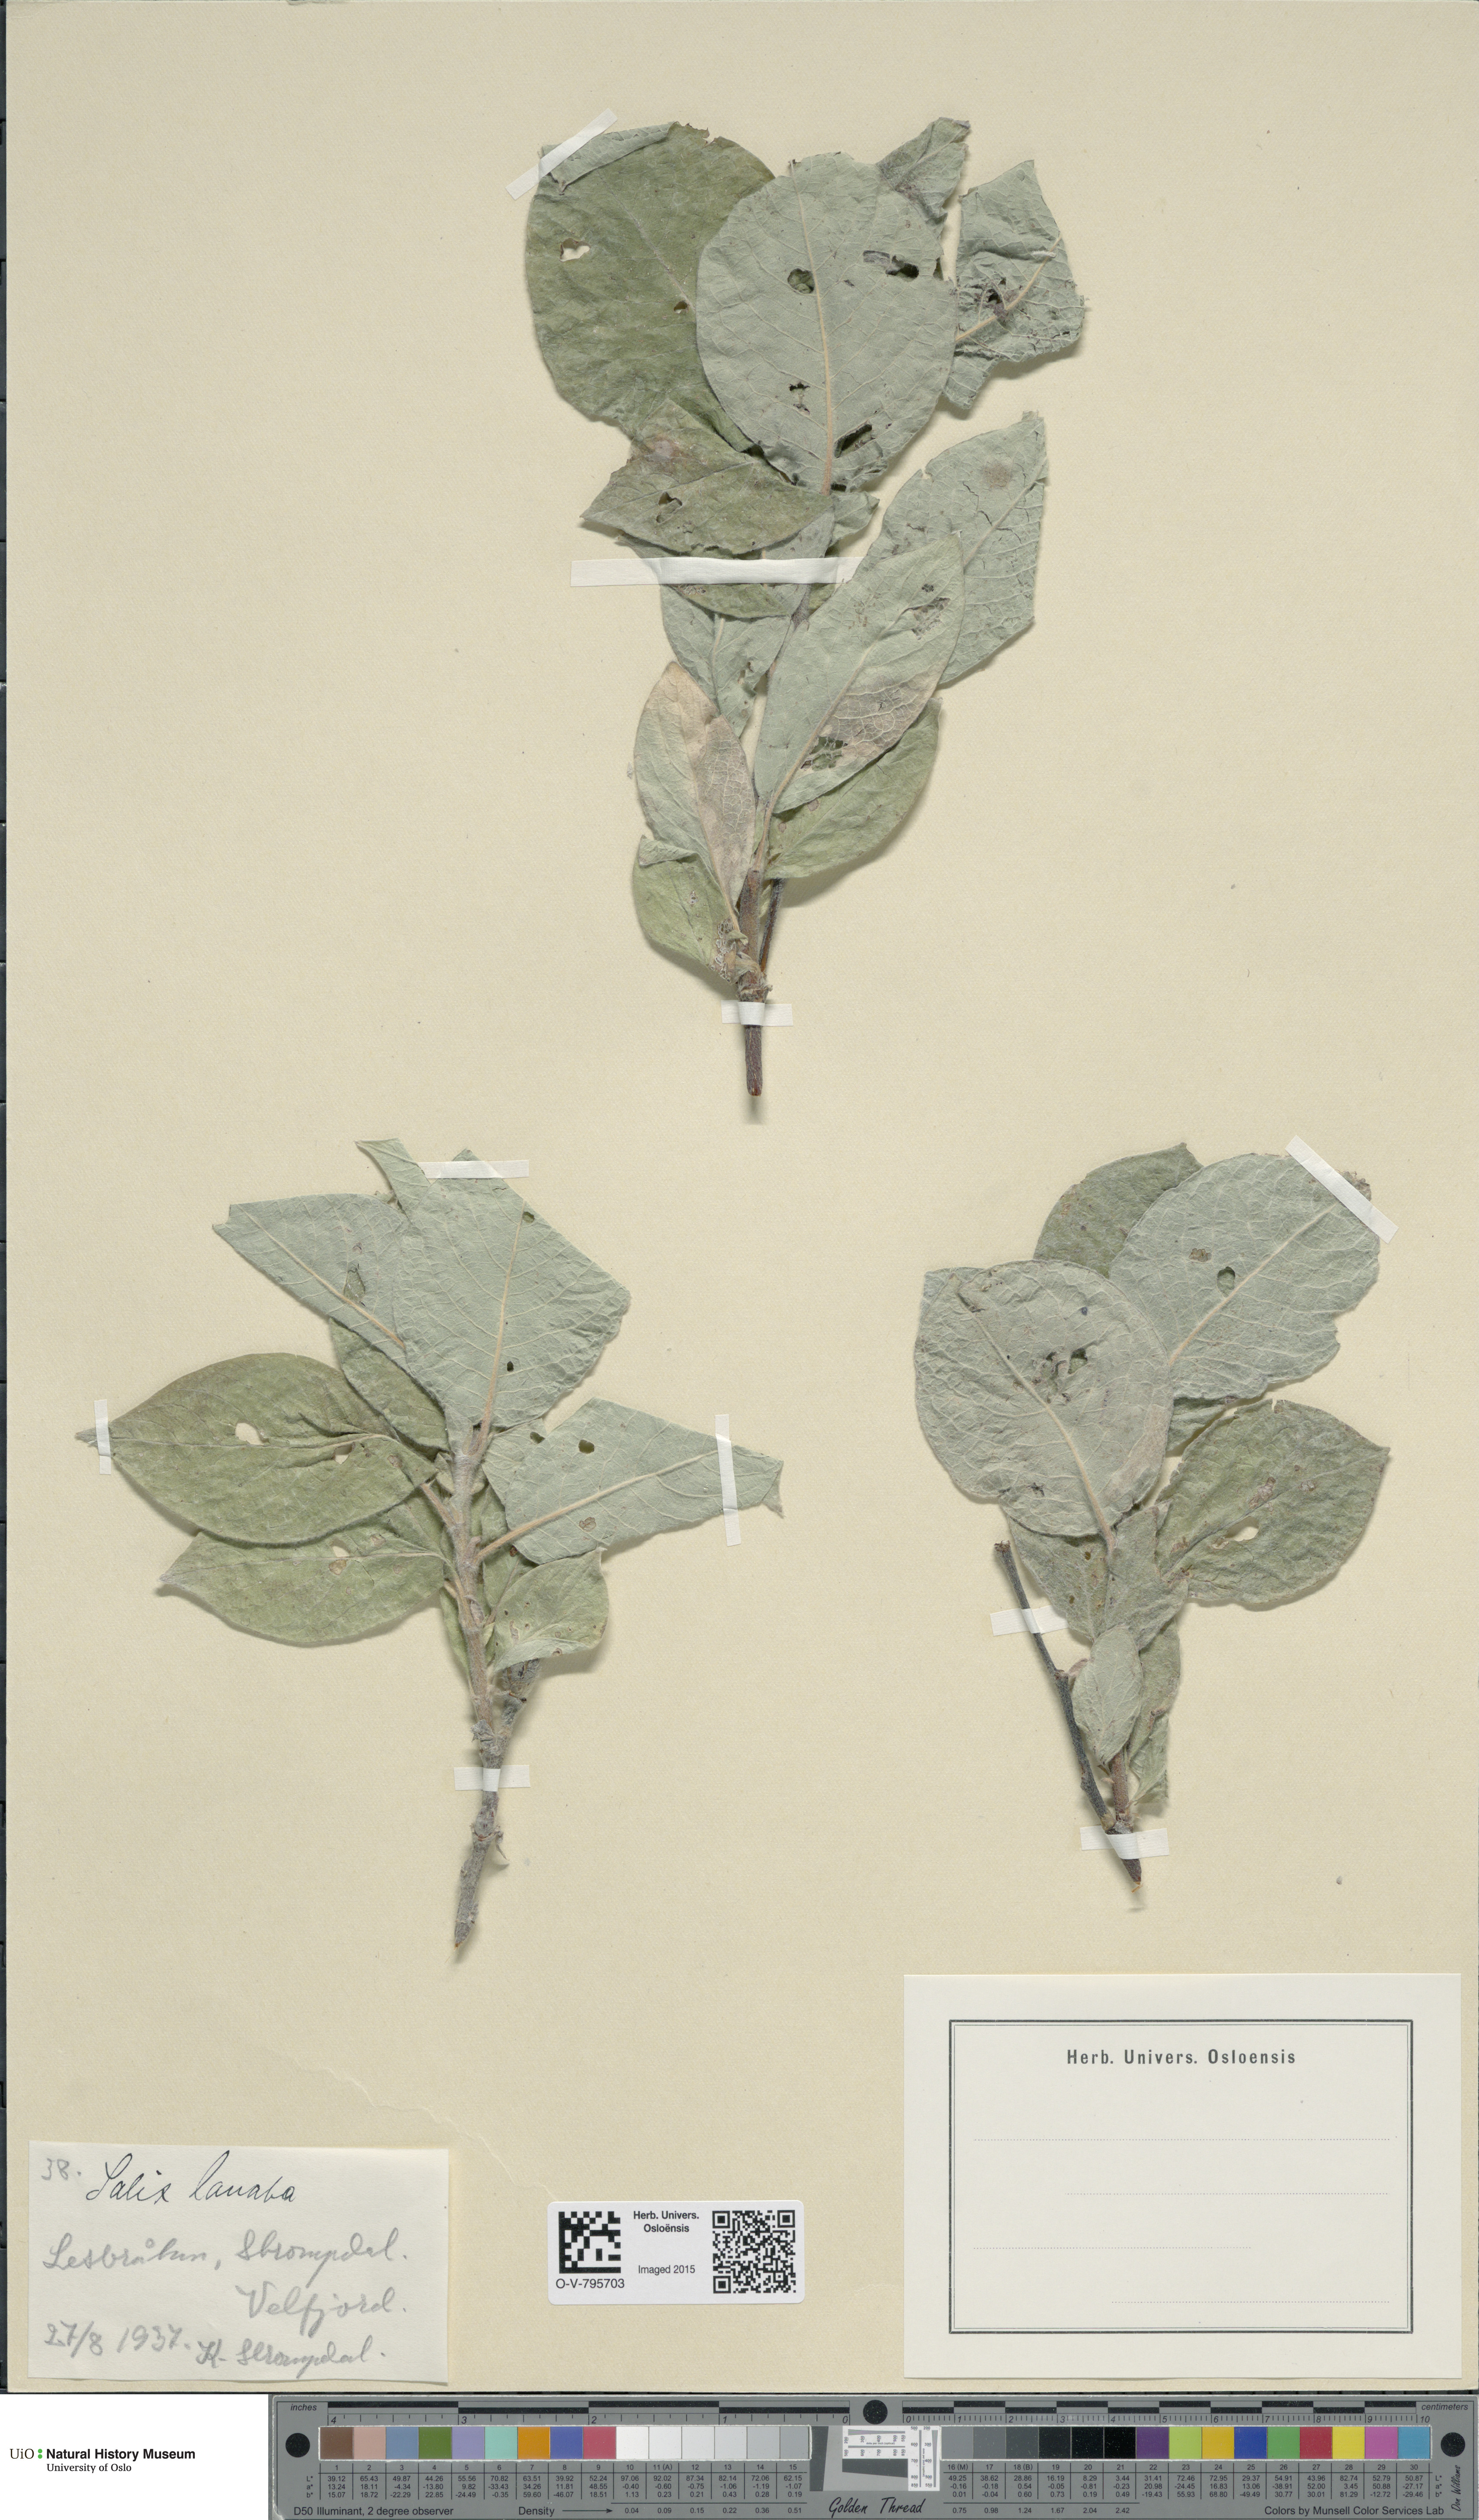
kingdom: Plantae
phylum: Tracheophyta
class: Magnoliopsida
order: Malpighiales
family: Salicaceae
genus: Salix
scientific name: Salix lanata
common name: Woolly willow
